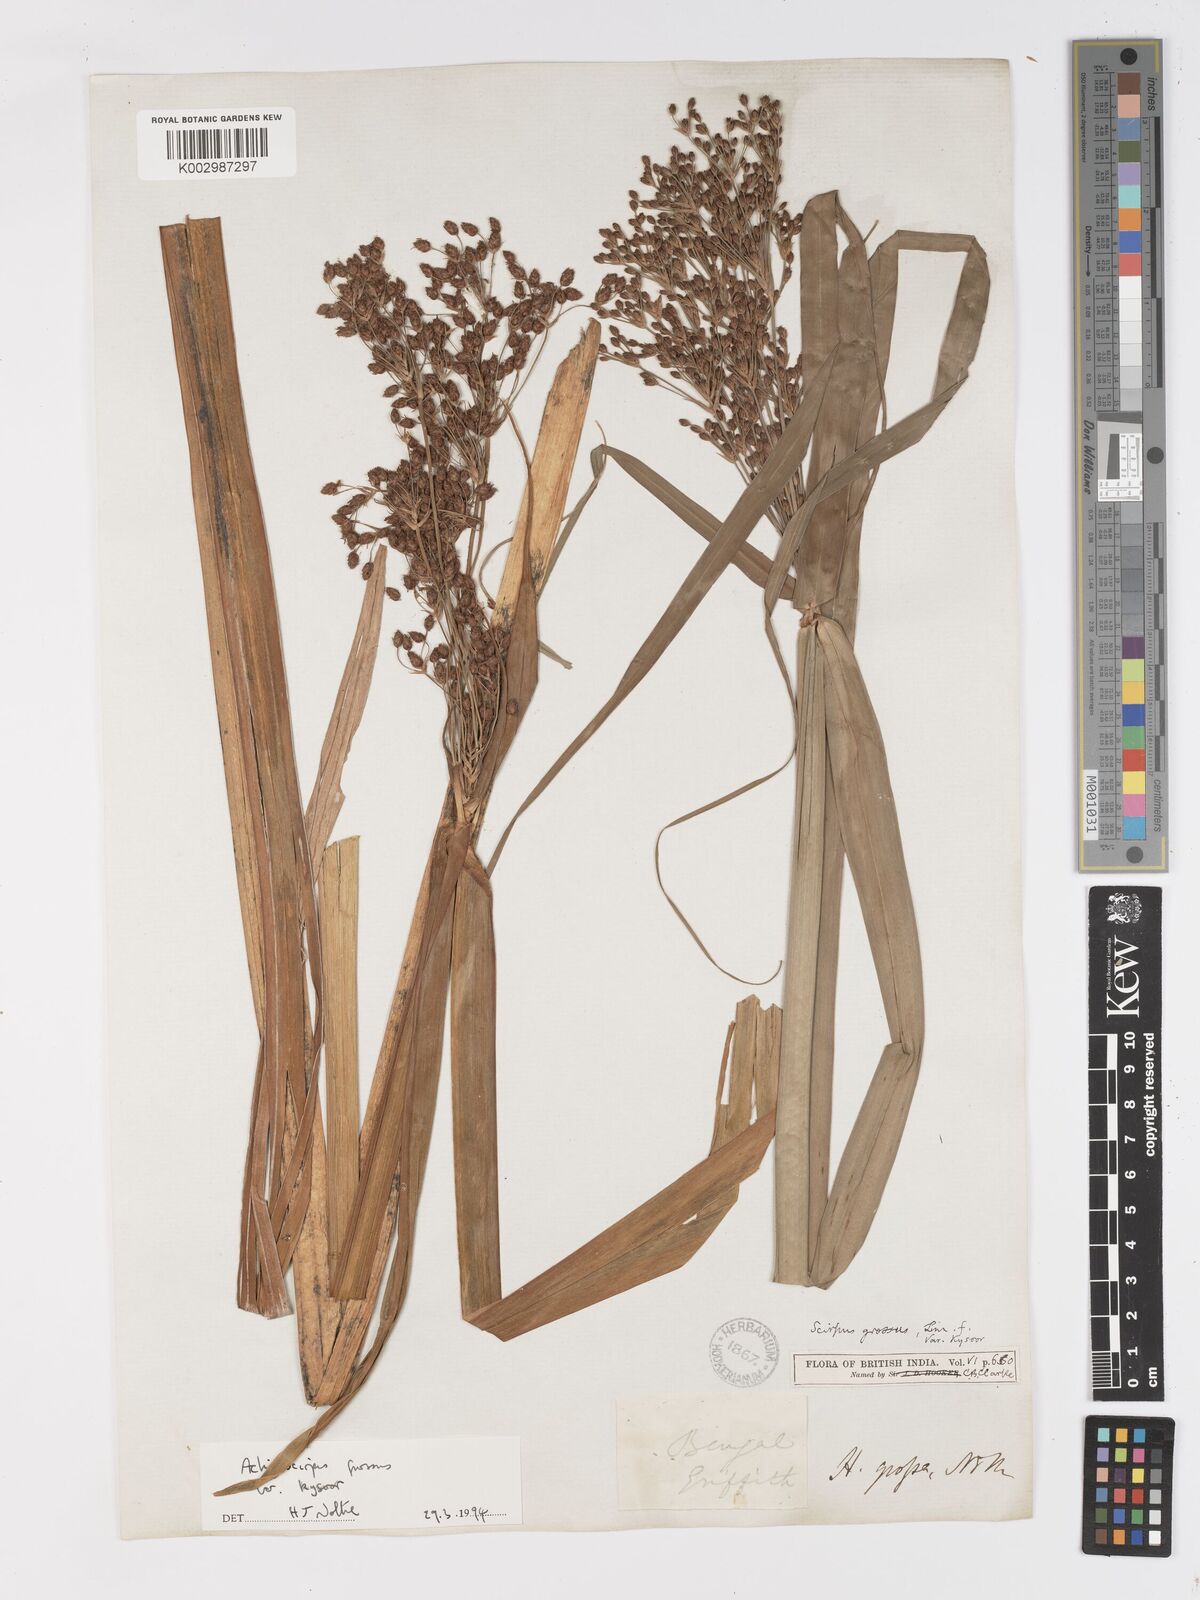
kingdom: Plantae
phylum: Tracheophyta
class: Liliopsida
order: Poales
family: Cyperaceae
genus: Actinoscirpus
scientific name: Actinoscirpus grossus
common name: Giant bur rush
